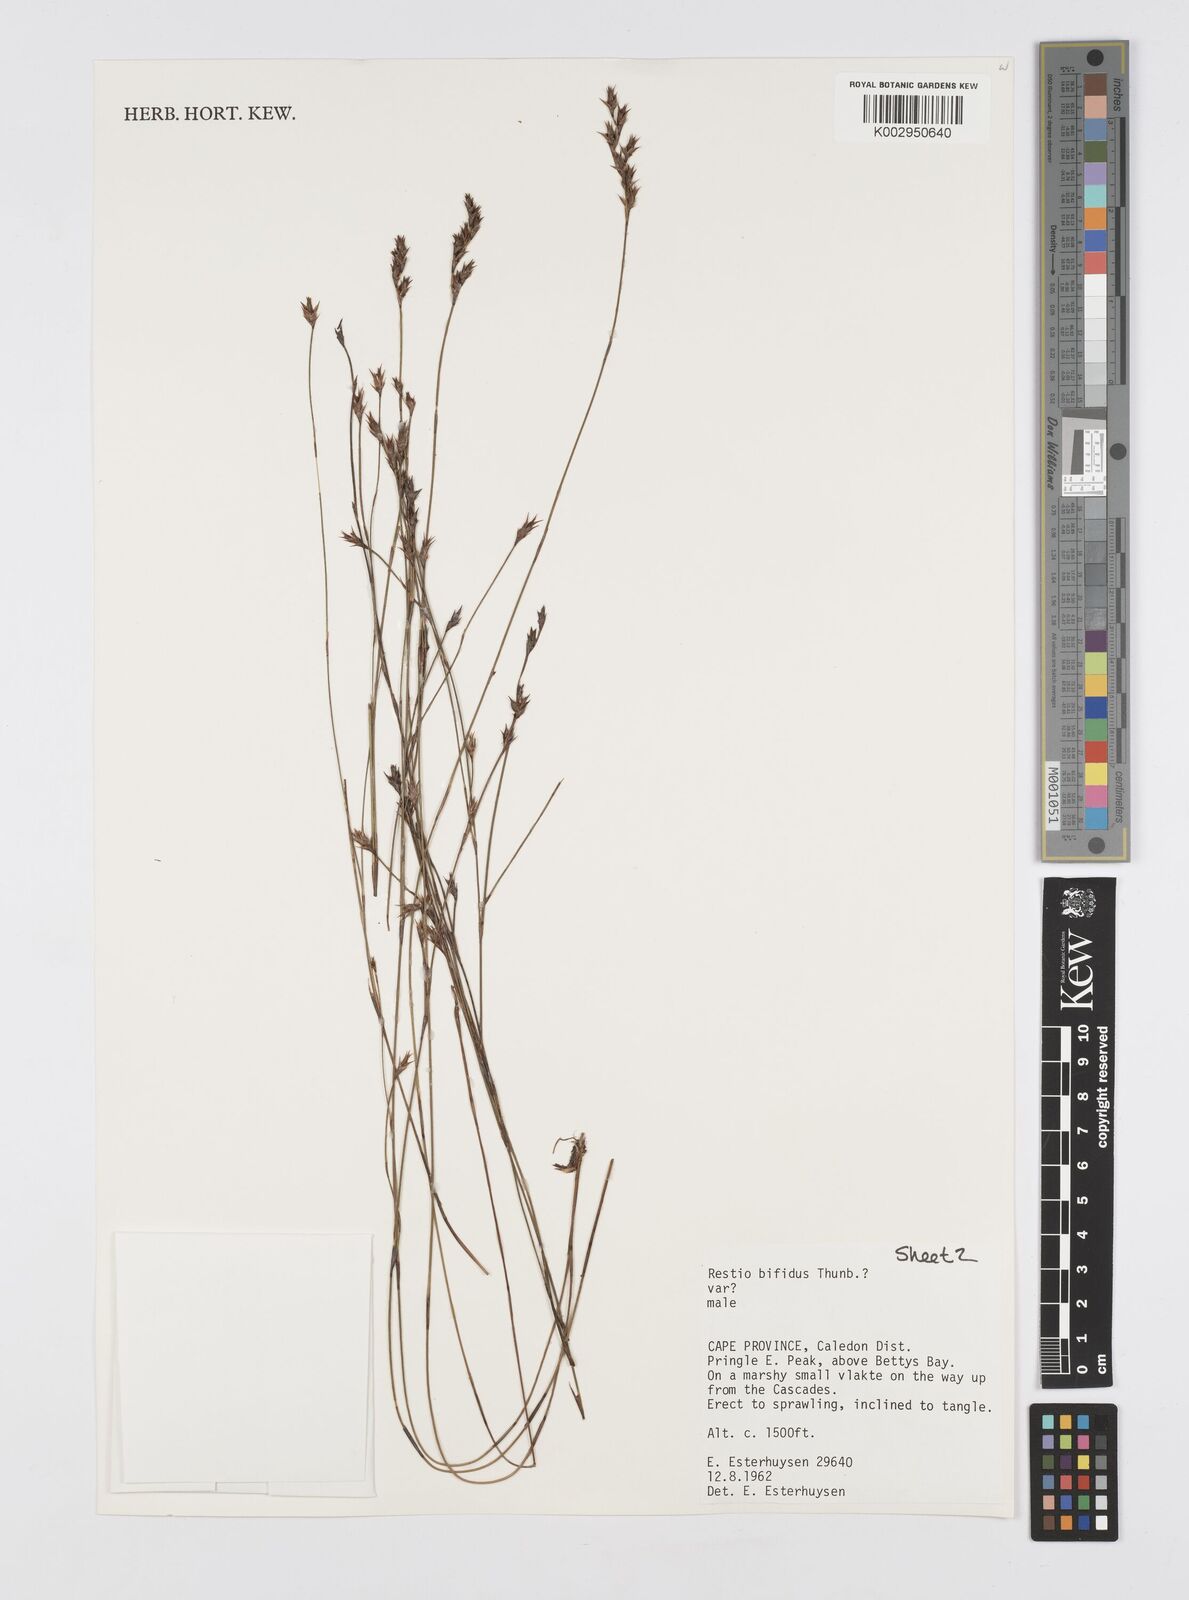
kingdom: Plantae
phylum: Tracheophyta
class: Liliopsida
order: Poales
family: Restionaceae
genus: Restio
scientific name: Restio bifidus
